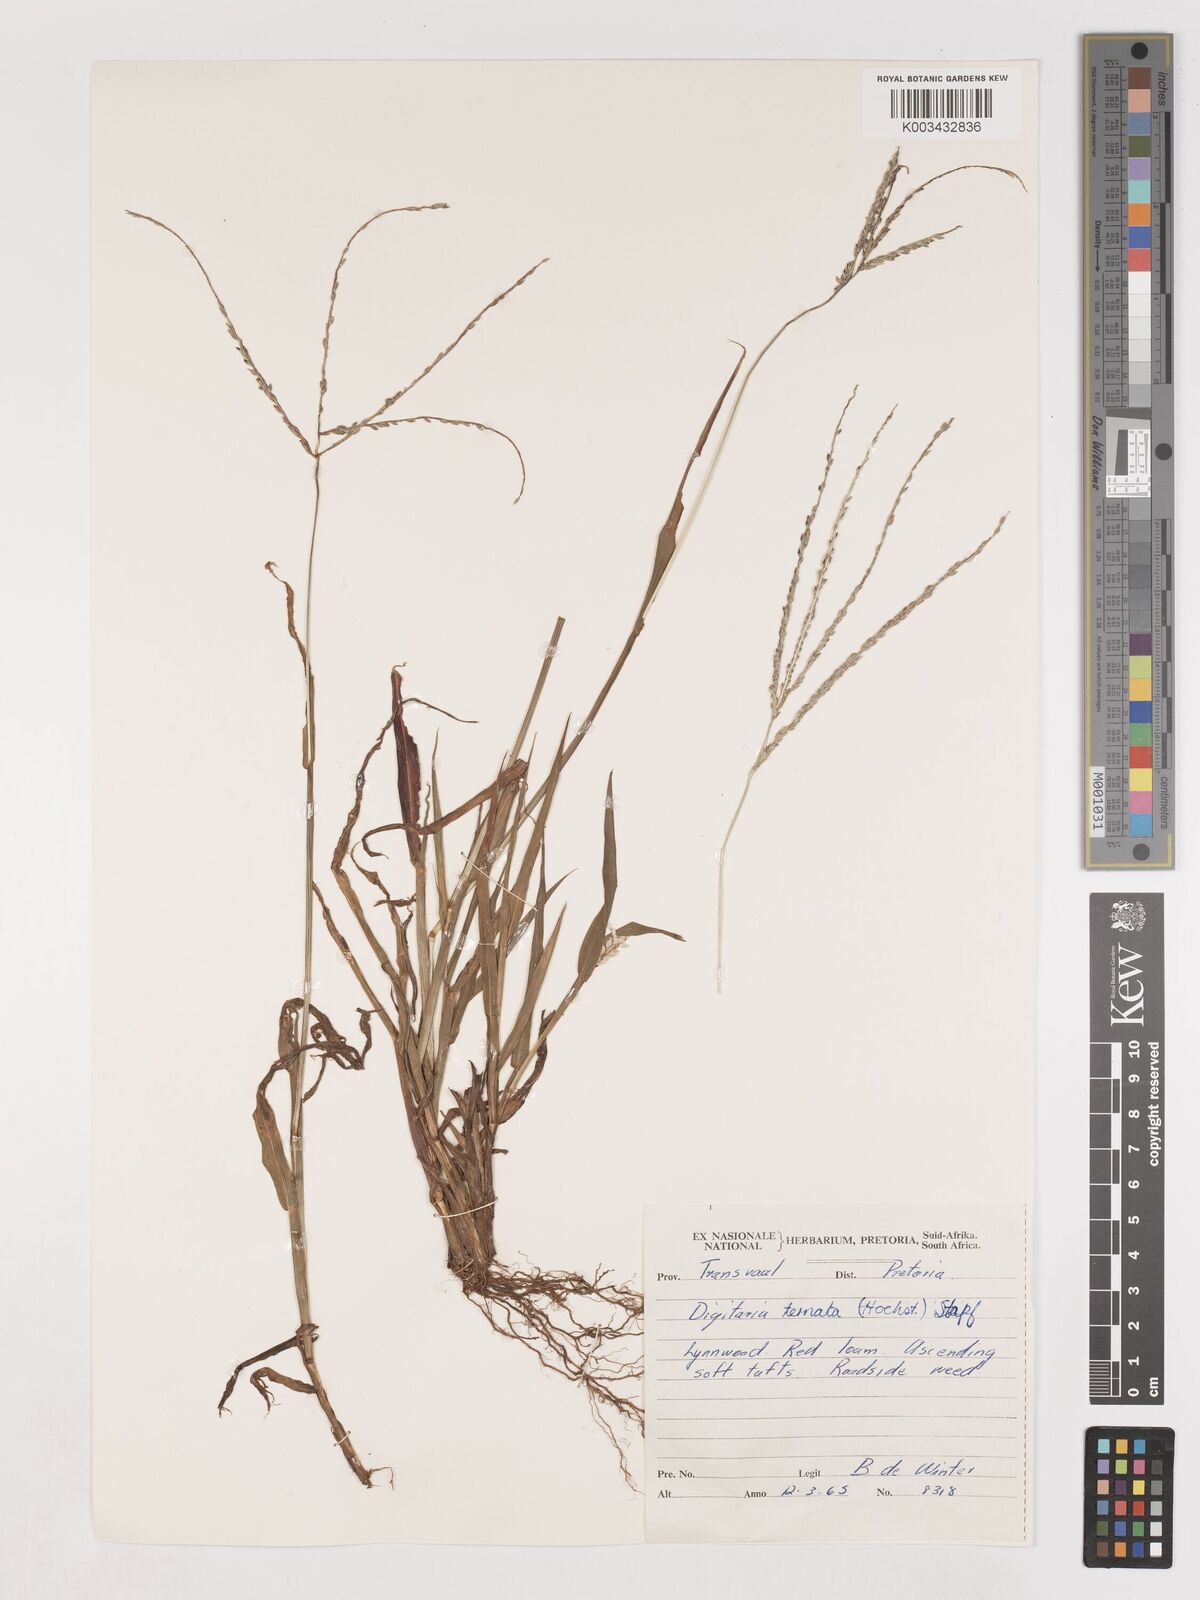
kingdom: Plantae
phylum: Tracheophyta
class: Liliopsida
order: Poales
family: Poaceae
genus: Digitaria
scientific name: Digitaria ternata
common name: Blackseed crabgrass
